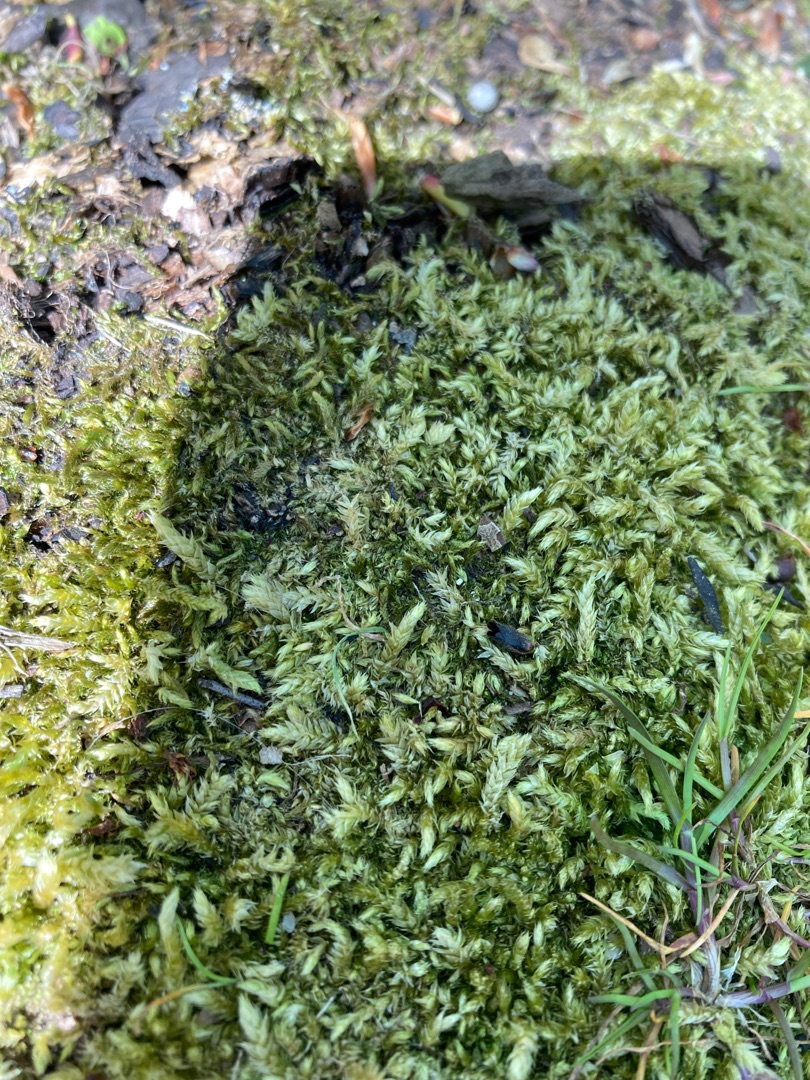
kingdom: Plantae
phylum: Bryophyta
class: Bryopsida
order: Hypnales
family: Brachytheciaceae
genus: Brachythecium
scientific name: Brachythecium rutabulum
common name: Almindelig kortkapsel
